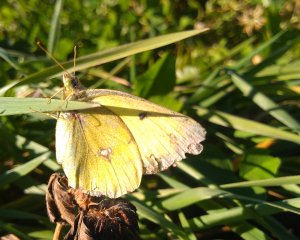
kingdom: Animalia
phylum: Arthropoda
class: Insecta
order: Lepidoptera
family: Pieridae
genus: Colias
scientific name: Colias philodice
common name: Clouded Sulphur
